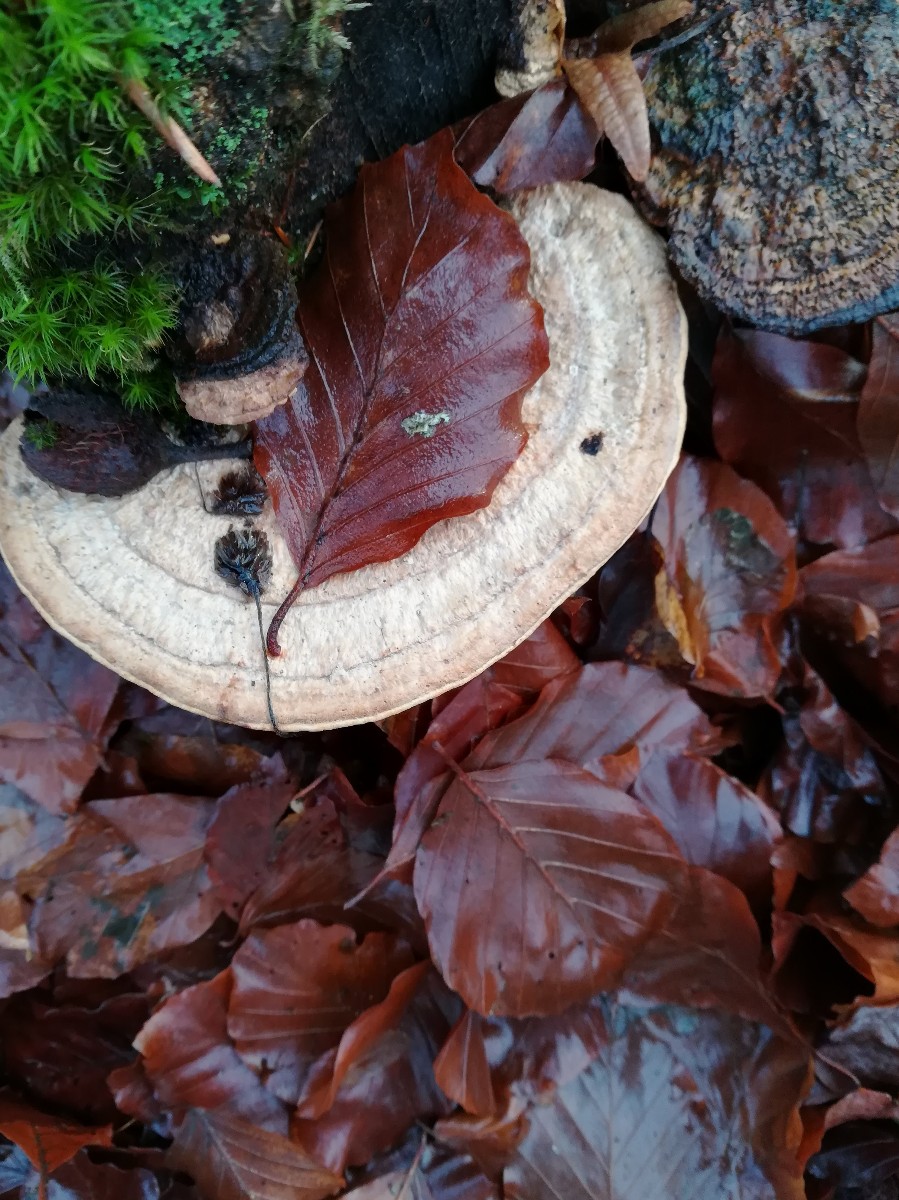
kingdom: Fungi
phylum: Basidiomycota
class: Agaricomycetes
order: Polyporales
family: Fomitopsidaceae
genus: Daedalea
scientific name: Daedalea quercina
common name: ege-labyrintsvamp
